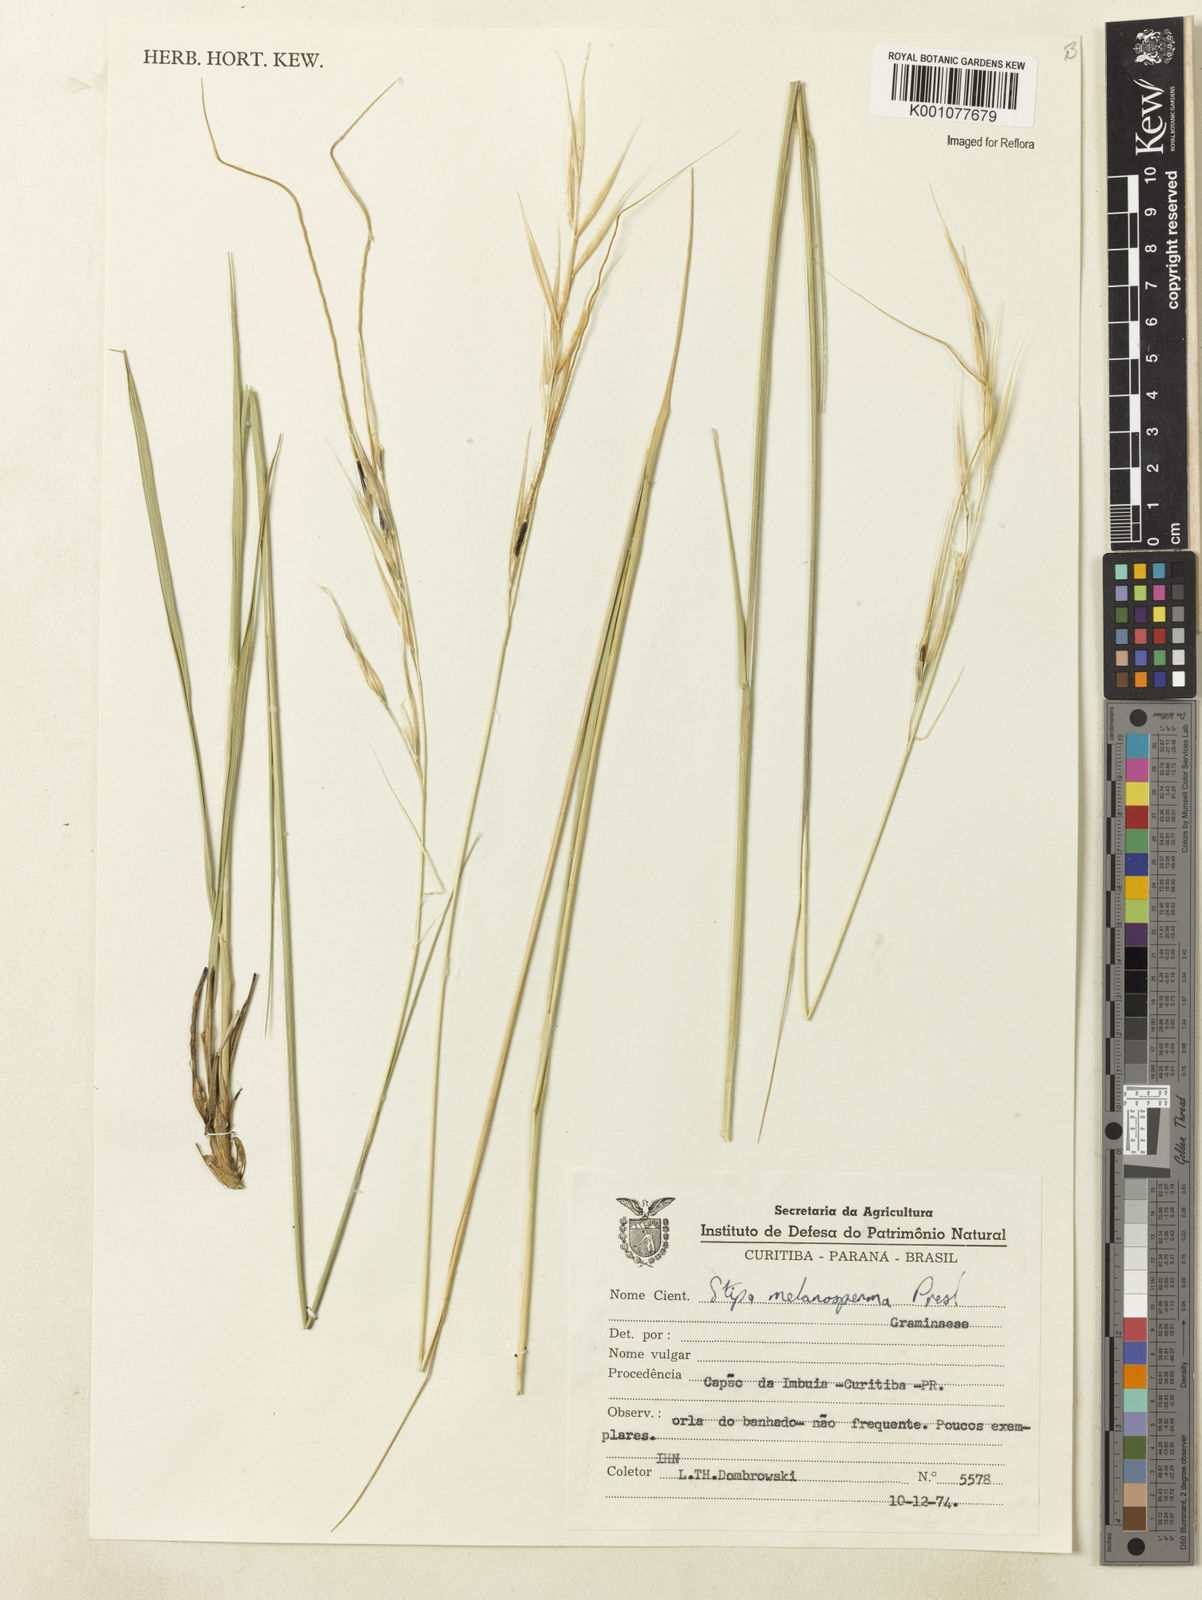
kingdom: Plantae
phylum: Tracheophyta
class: Liliopsida
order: Poales
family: Poaceae
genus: Nassella
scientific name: Nassella melanosperma
